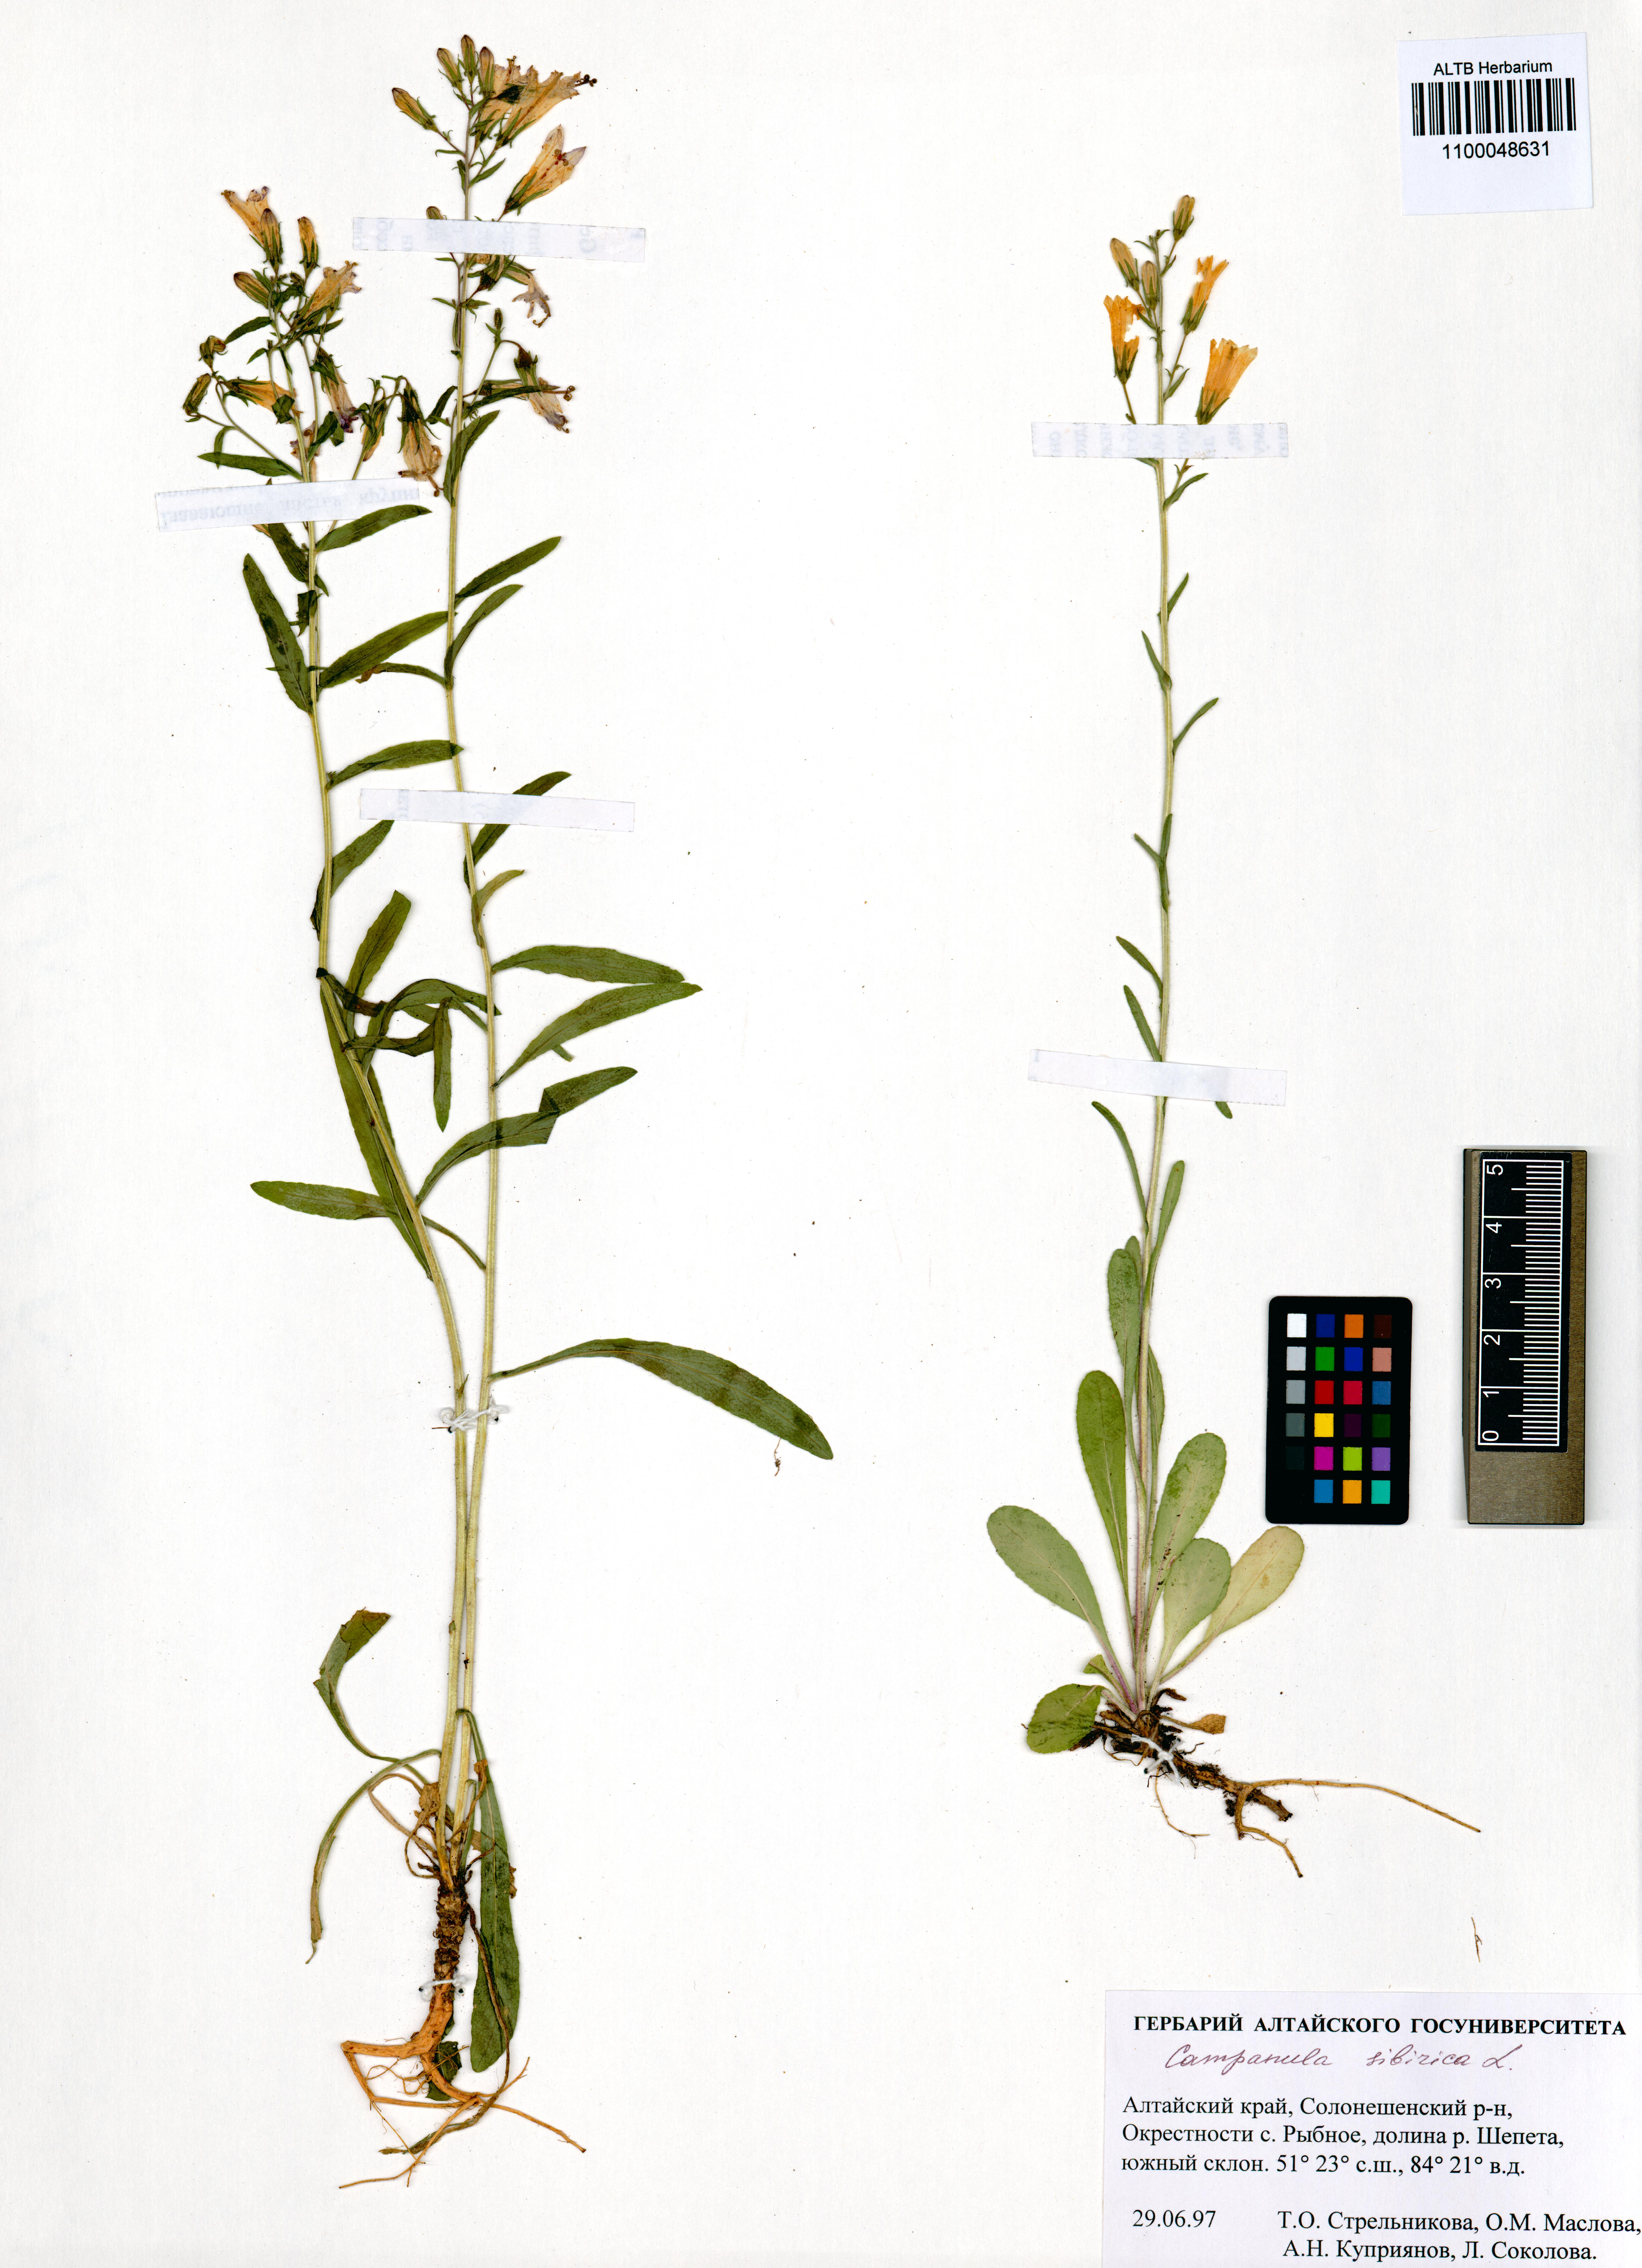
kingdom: Plantae
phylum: Tracheophyta
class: Magnoliopsida
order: Asterales
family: Campanulaceae
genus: Campanula
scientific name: Campanula sibirica
